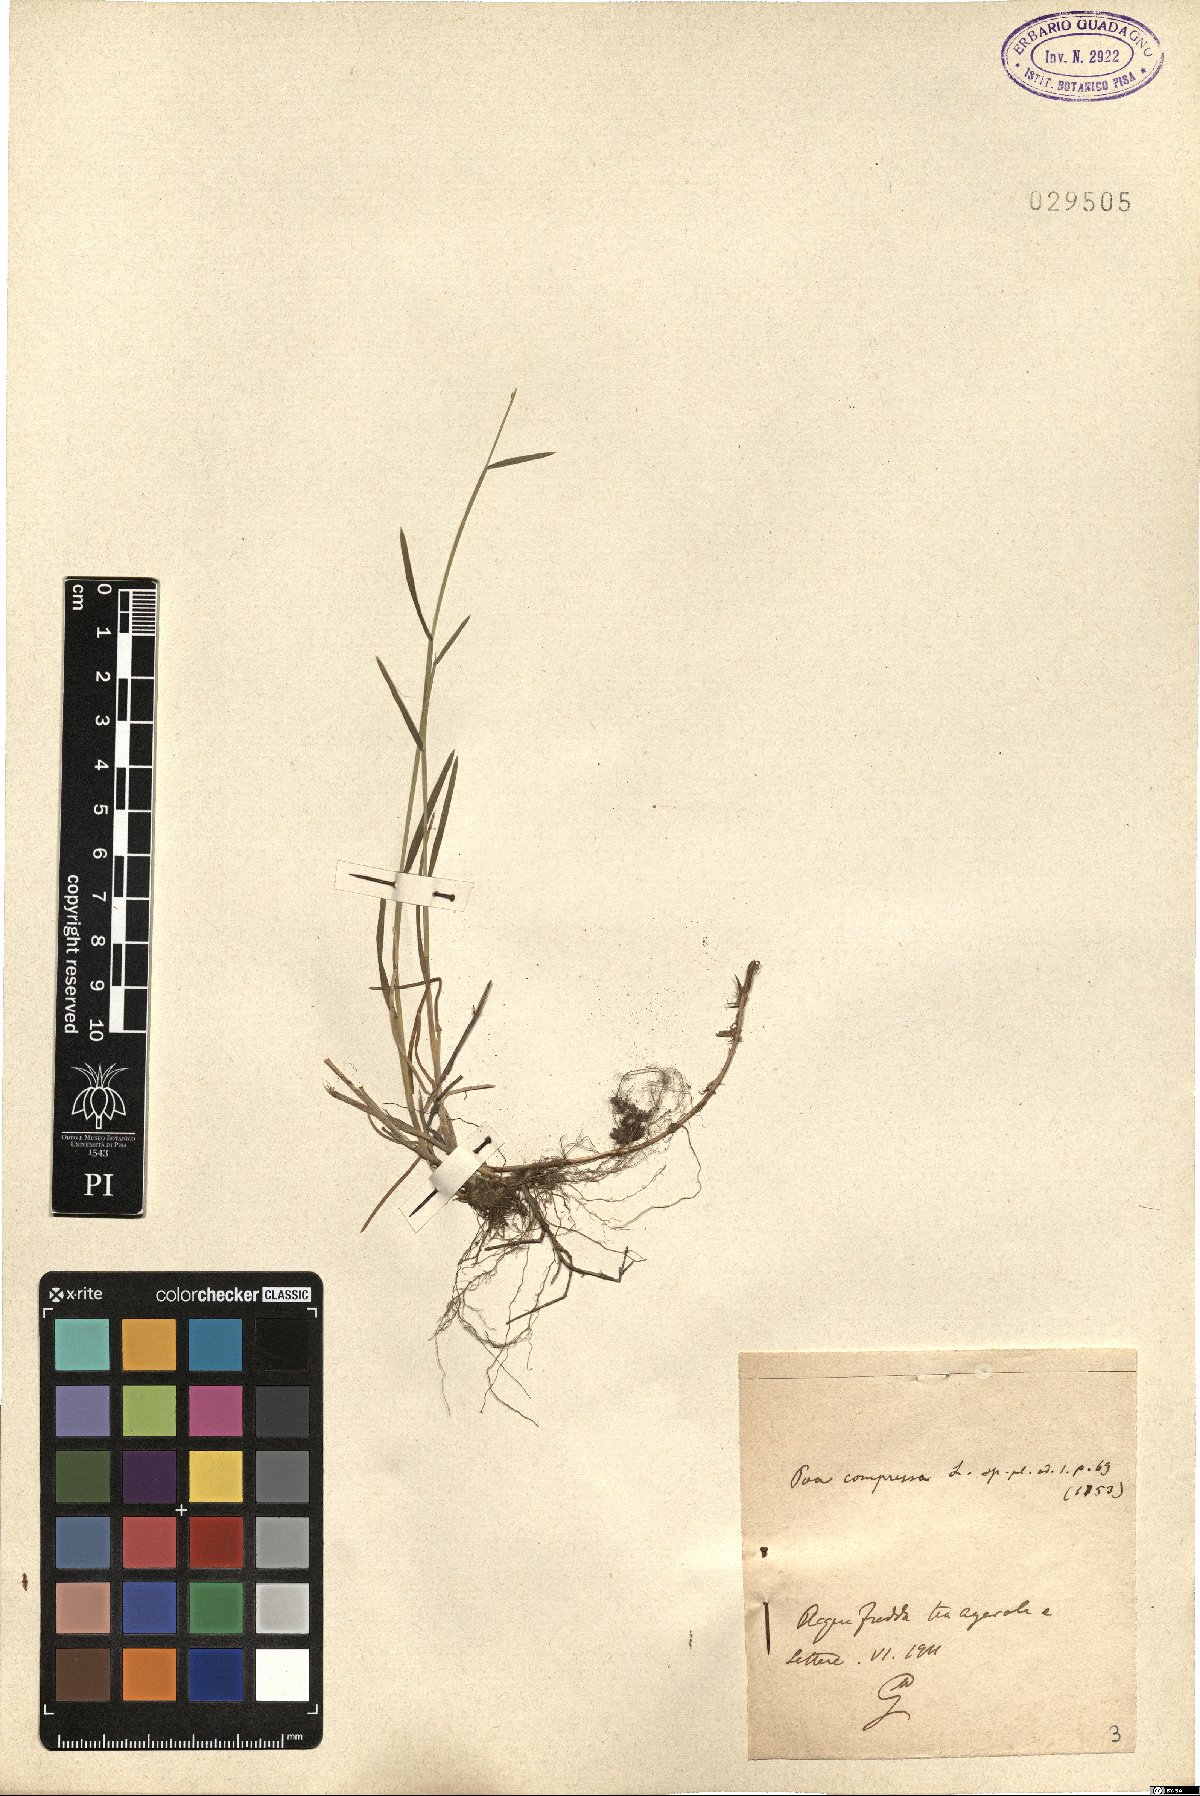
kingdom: Plantae
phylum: Tracheophyta
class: Liliopsida
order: Poales
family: Poaceae
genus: Poa
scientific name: Poa compressa
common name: Canada bluegrass
